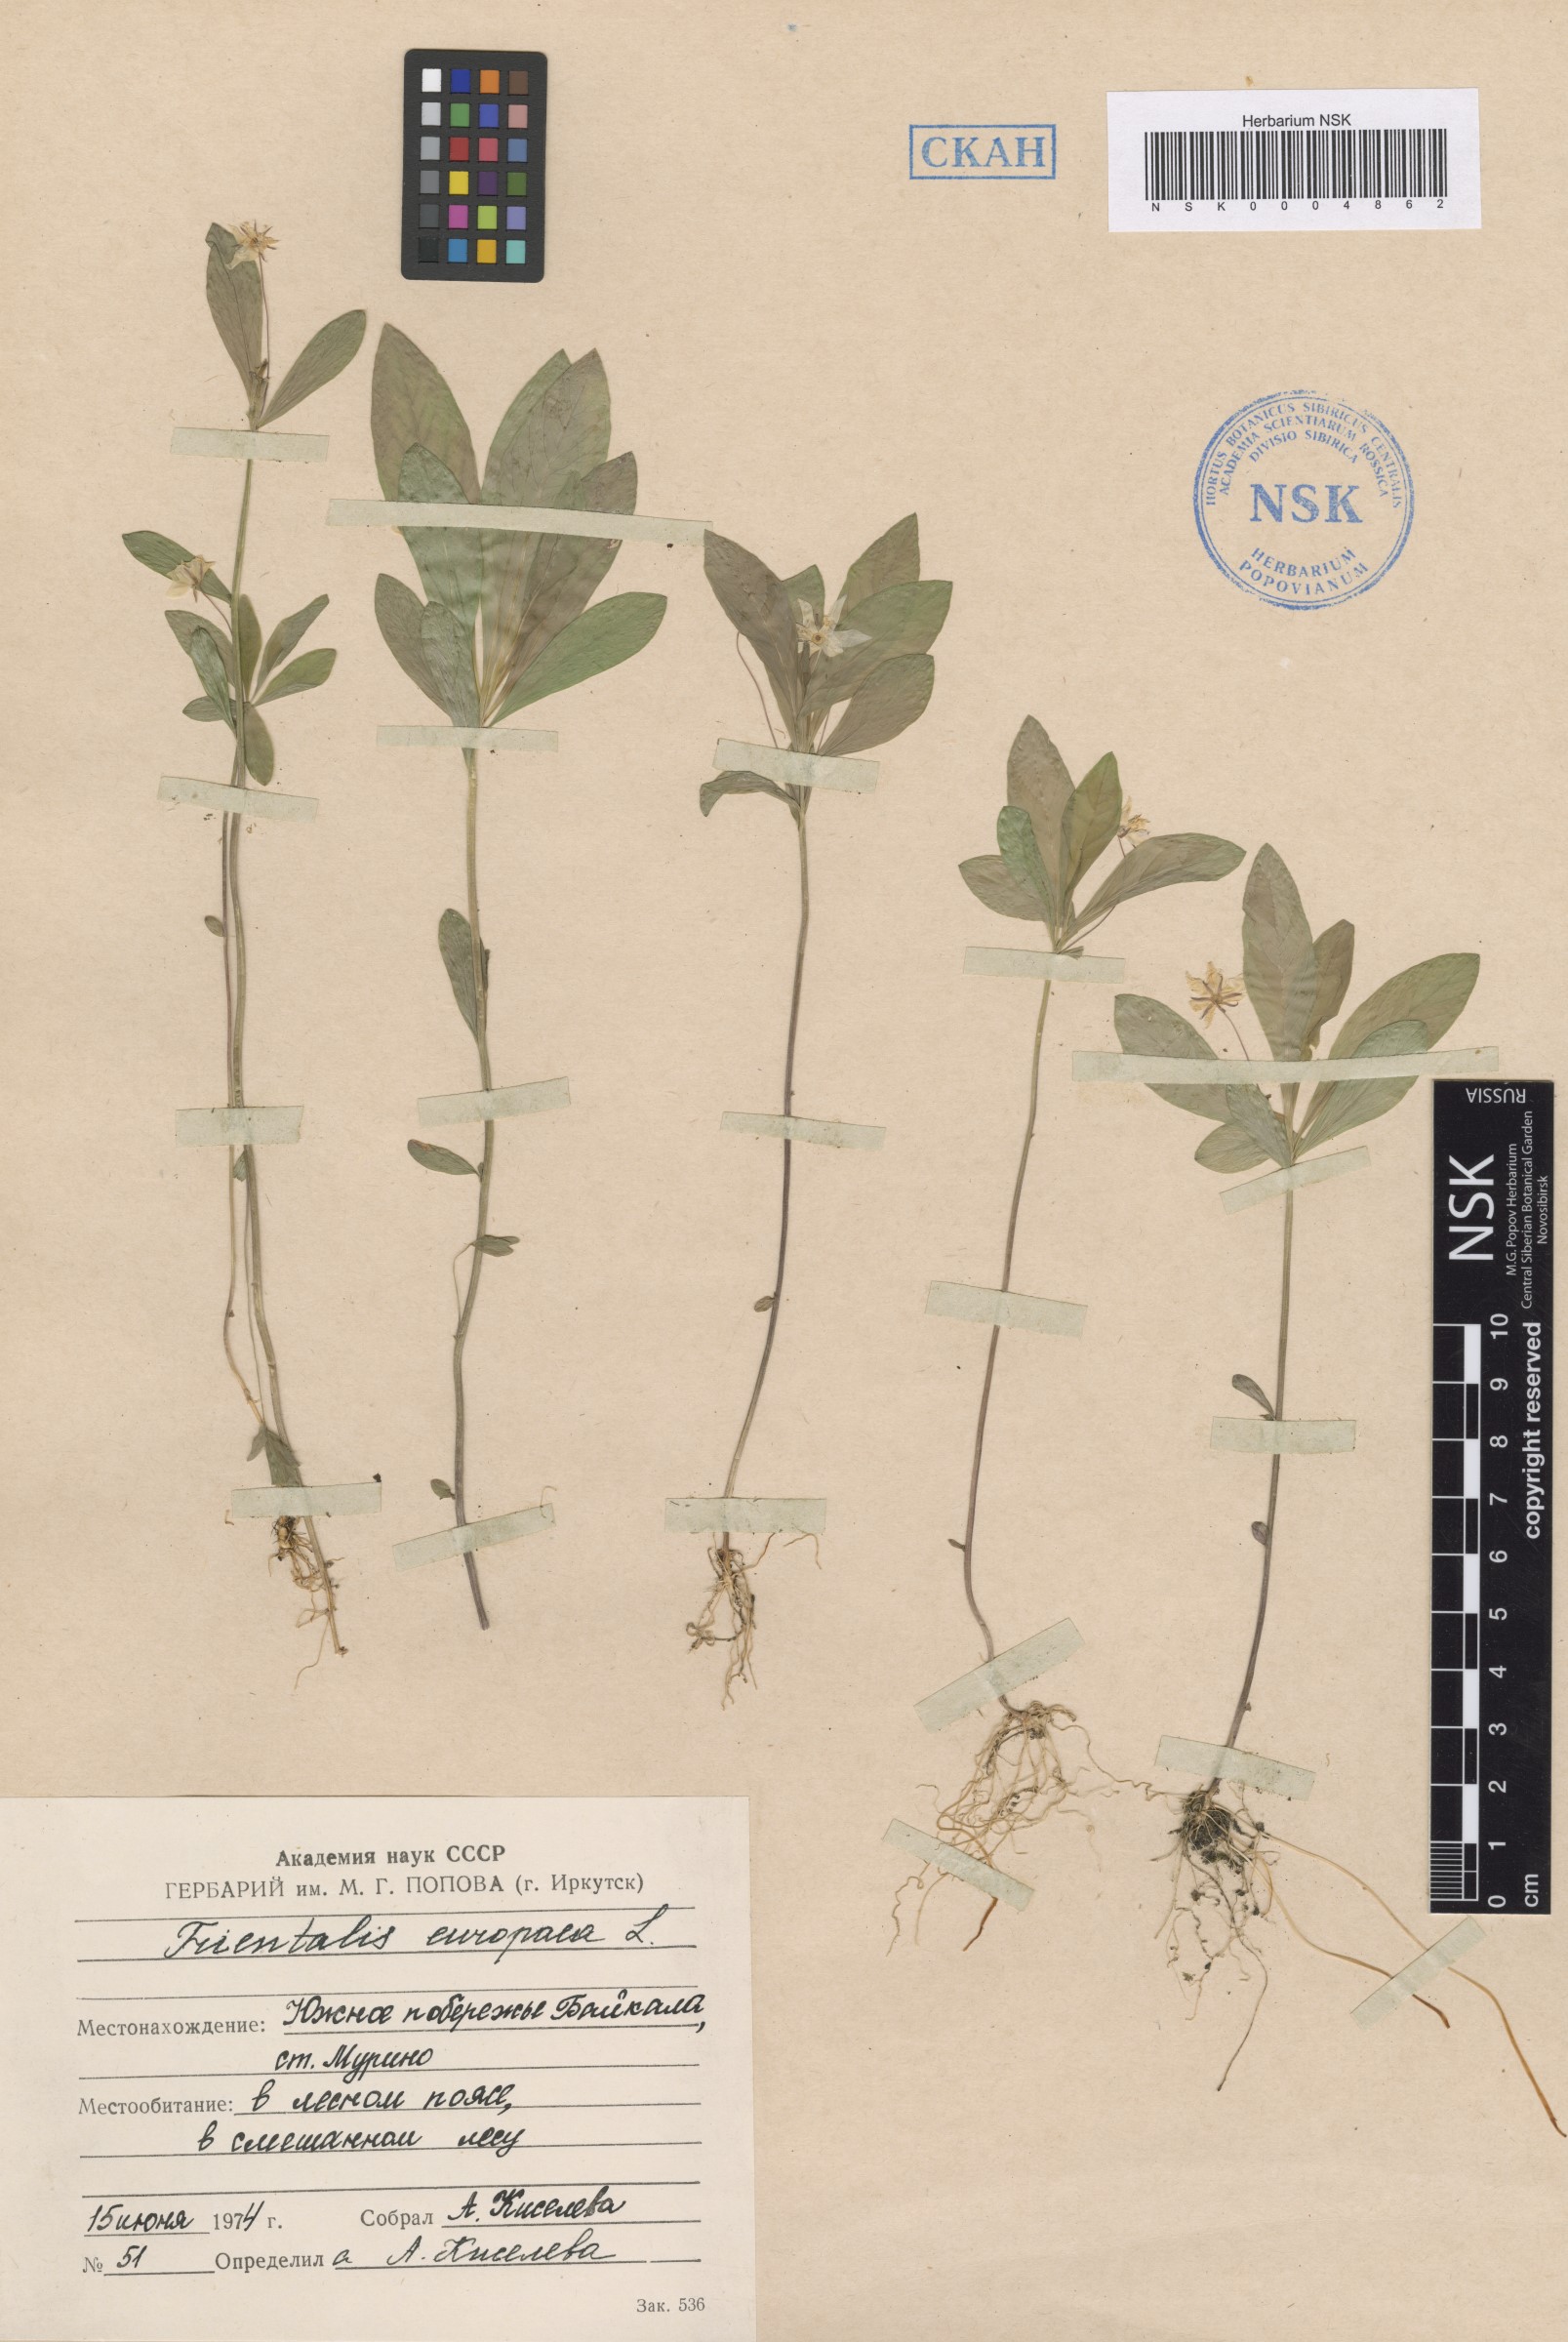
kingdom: Plantae
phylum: Tracheophyta
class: Magnoliopsida
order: Ericales
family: Primulaceae
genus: Lysimachia
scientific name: Lysimachia europaea
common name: Arctic starflower
